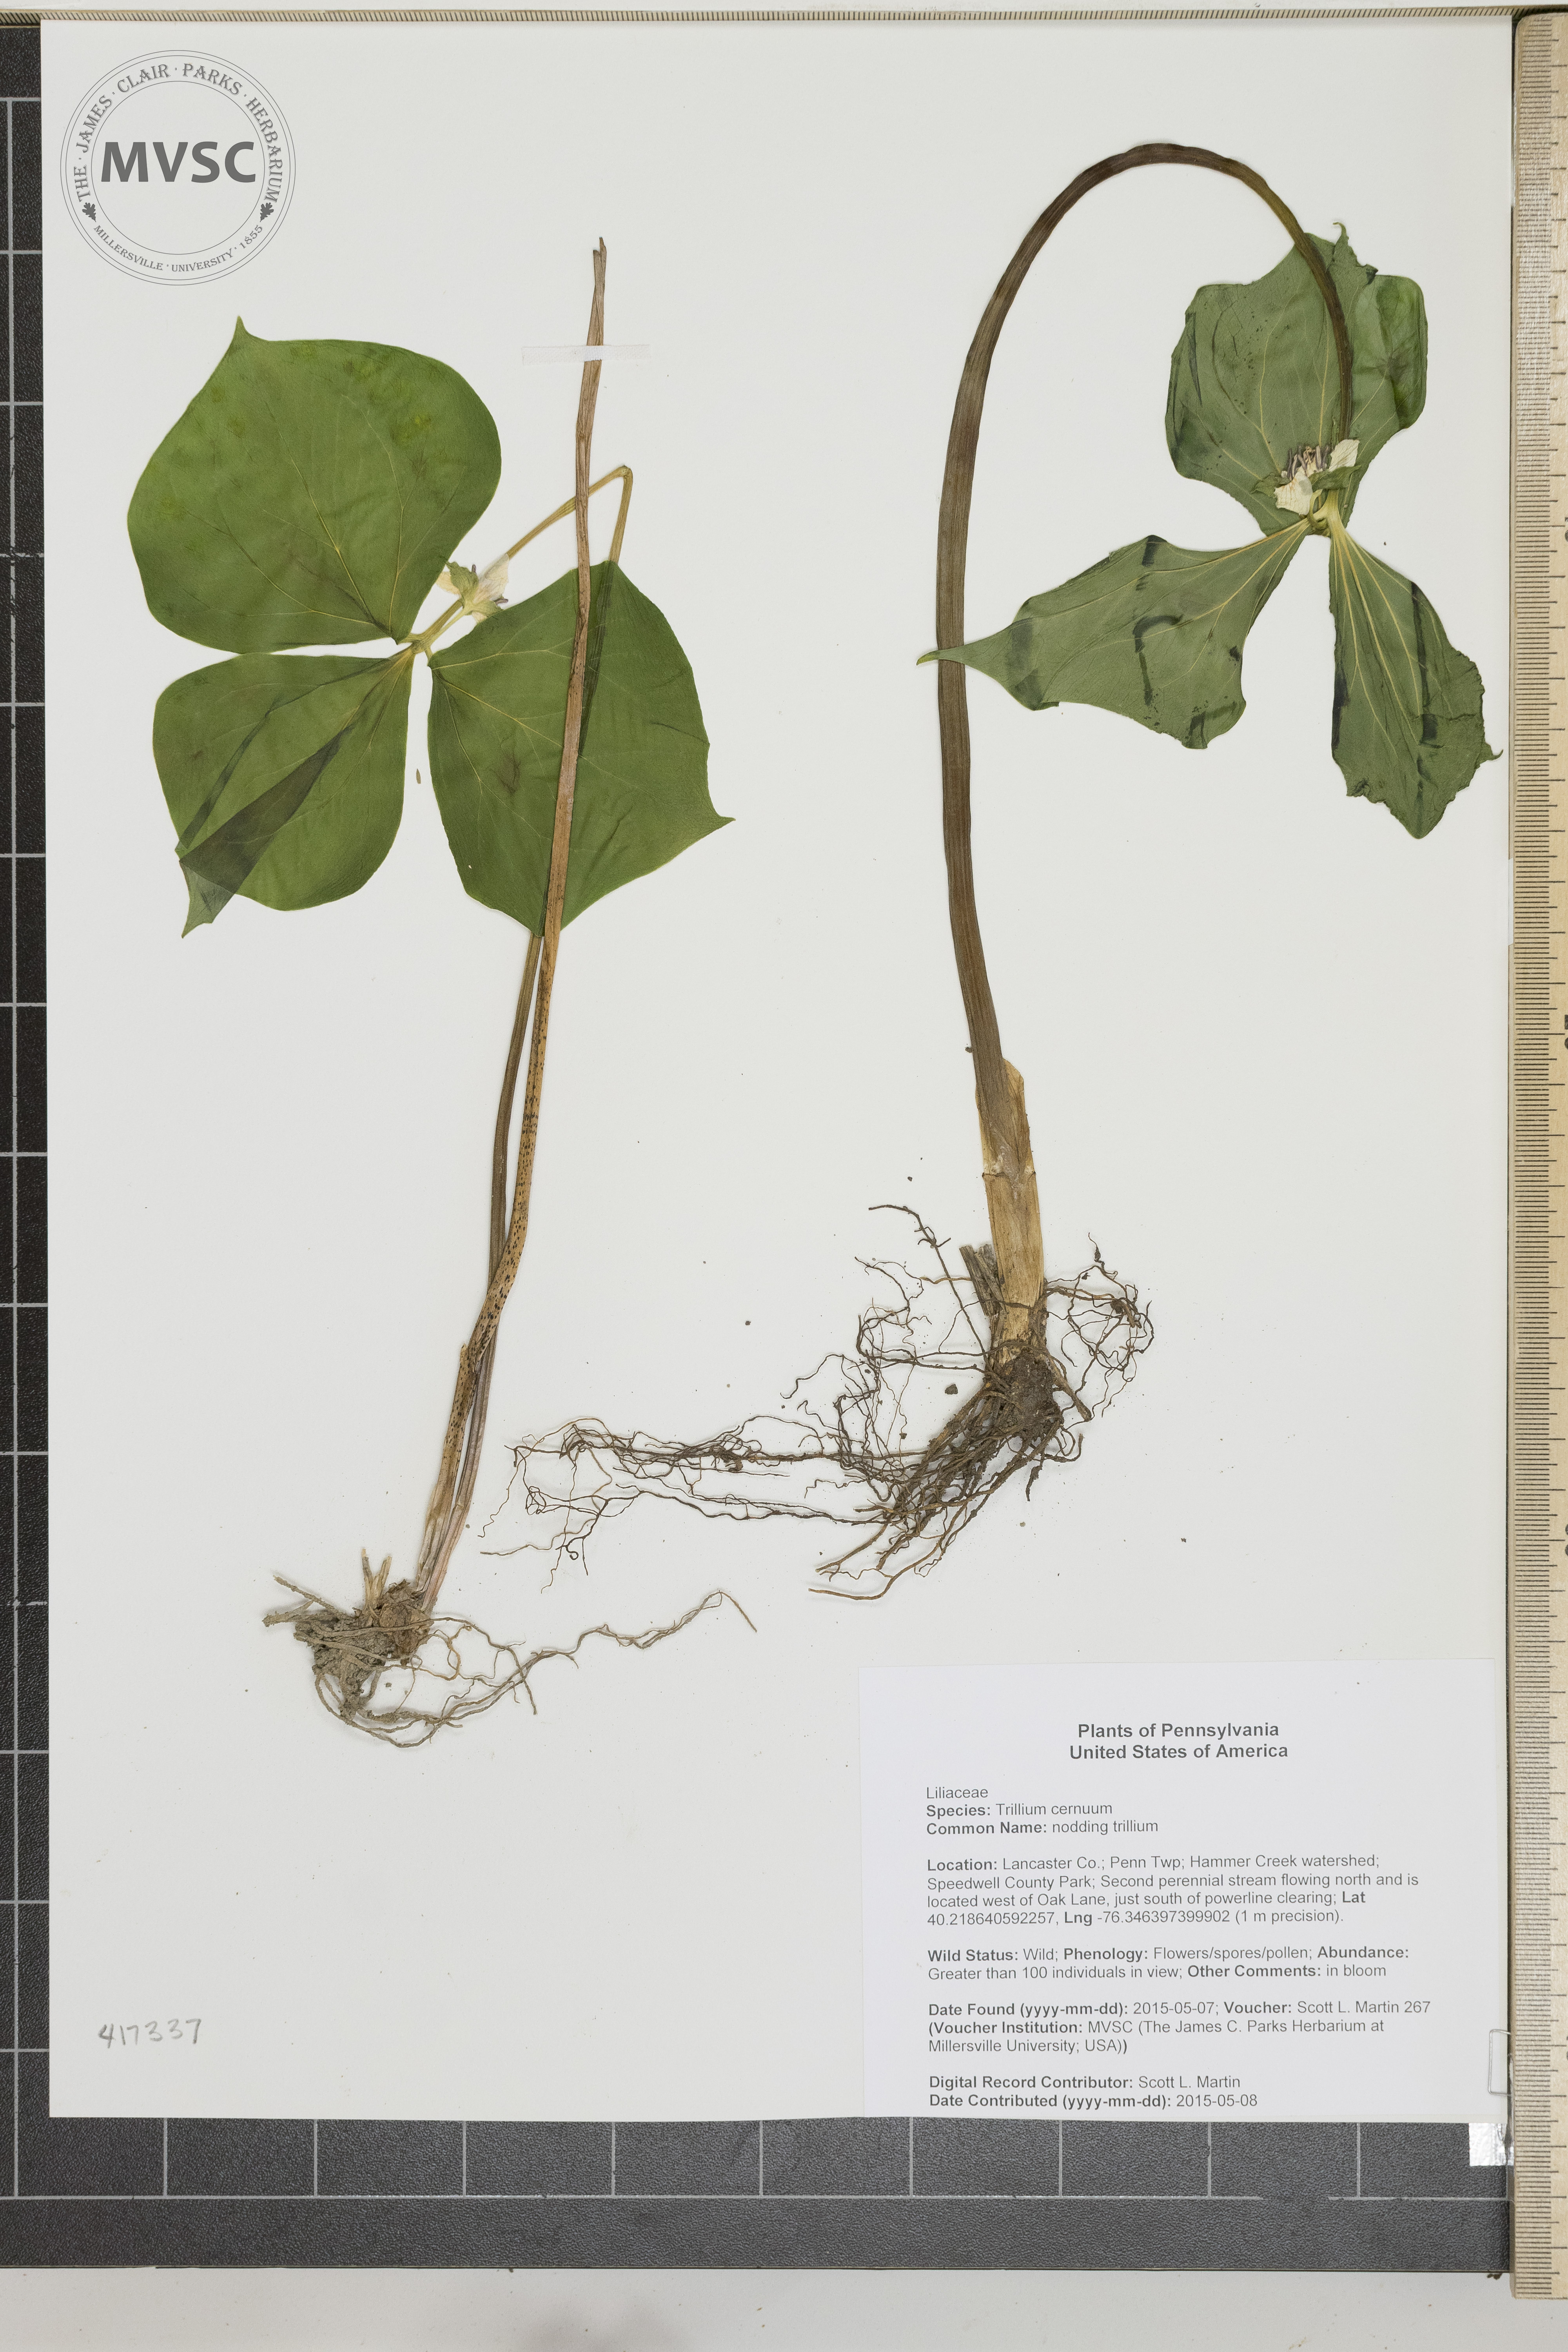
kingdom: Plantae
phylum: Tracheophyta
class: Liliopsida
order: Liliales
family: Melanthiaceae
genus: Trillium
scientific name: Trillium cernuum
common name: nodding trillium
